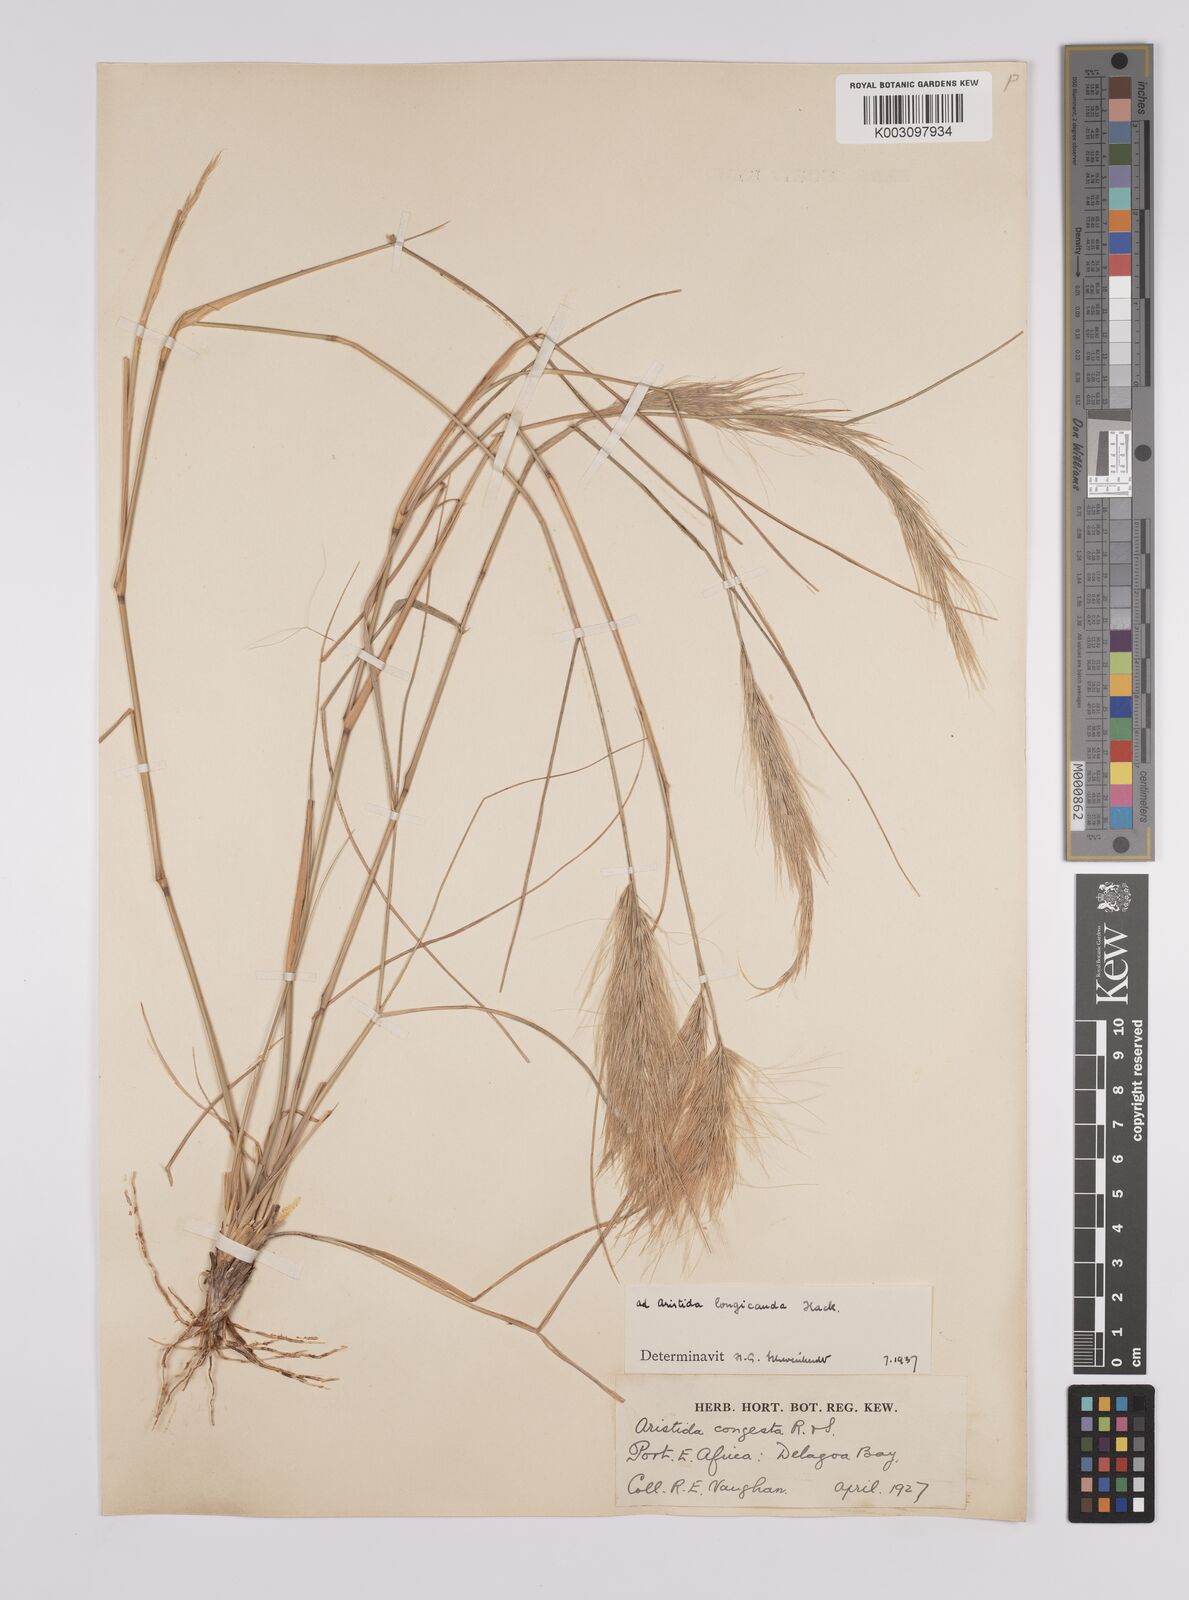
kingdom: Plantae
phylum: Tracheophyta
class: Liliopsida
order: Poales
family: Poaceae
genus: Aristida
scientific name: Aristida congesta
